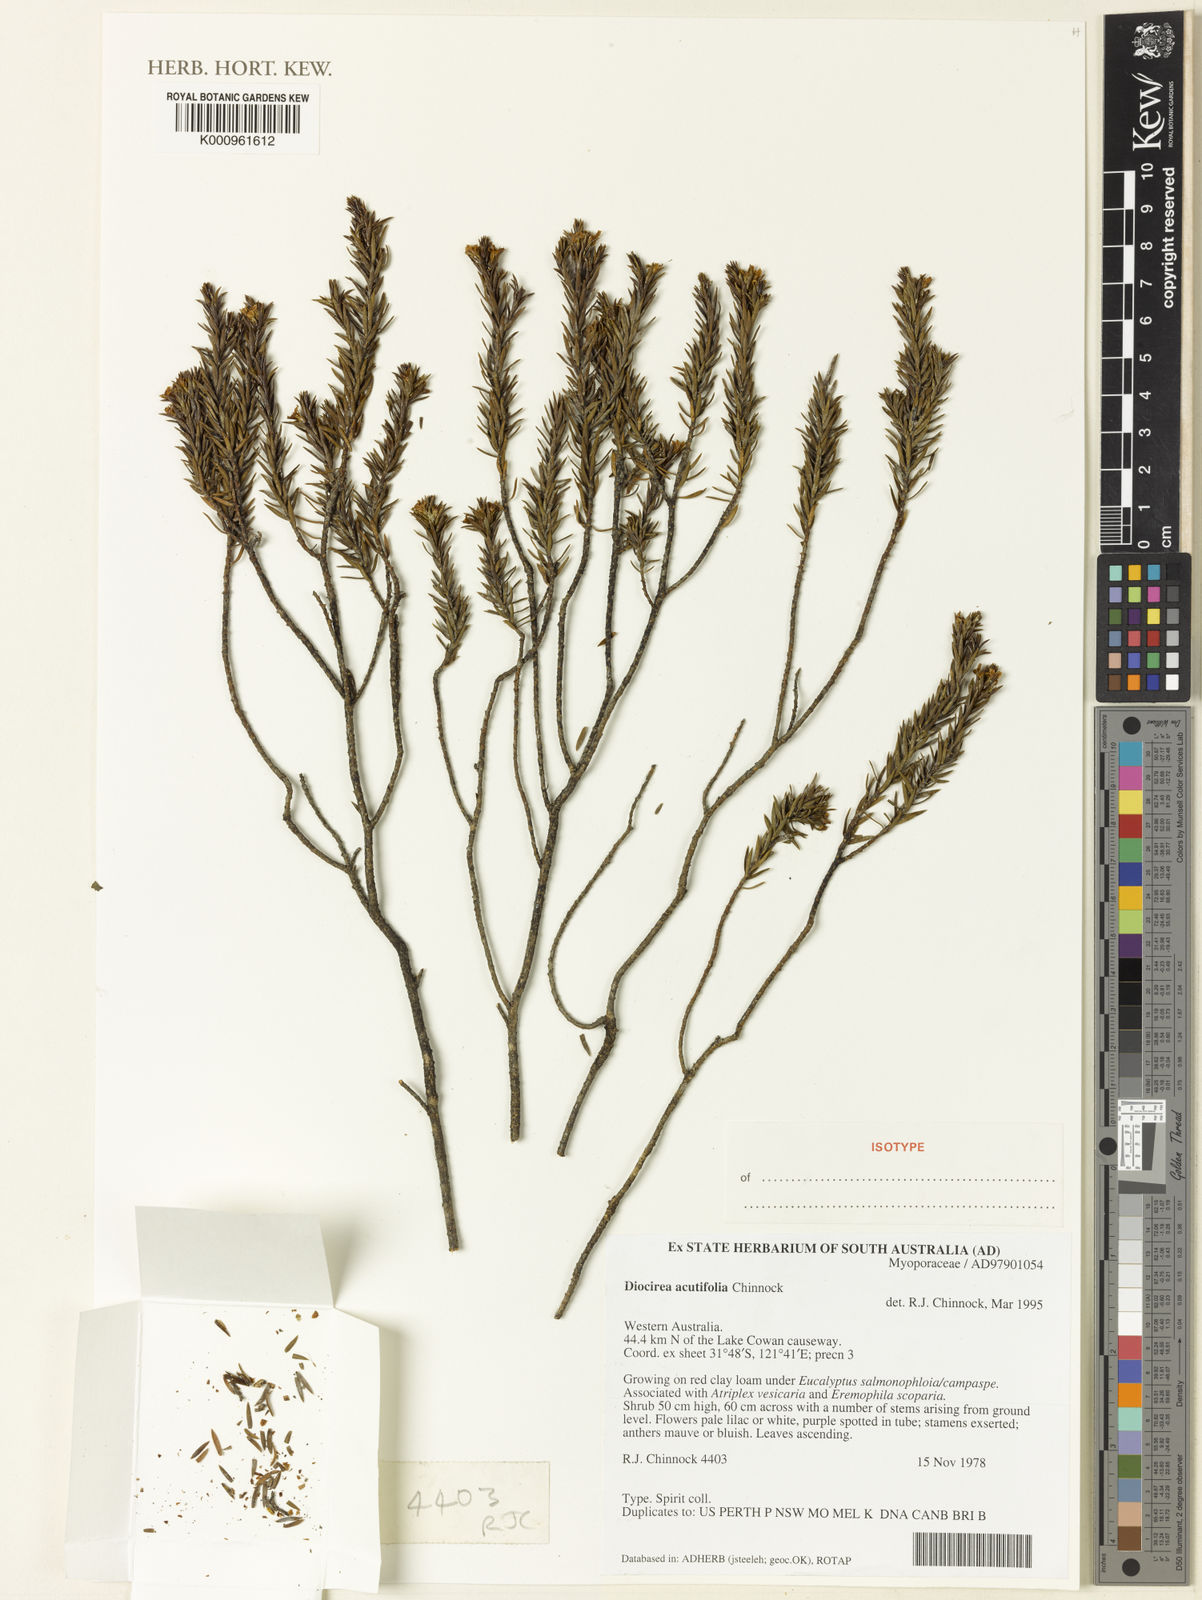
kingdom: Plantae
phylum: Tracheophyta
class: Magnoliopsida
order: Lamiales
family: Scrophulariaceae
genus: Eremophila
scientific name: Eremophila acutifolia
